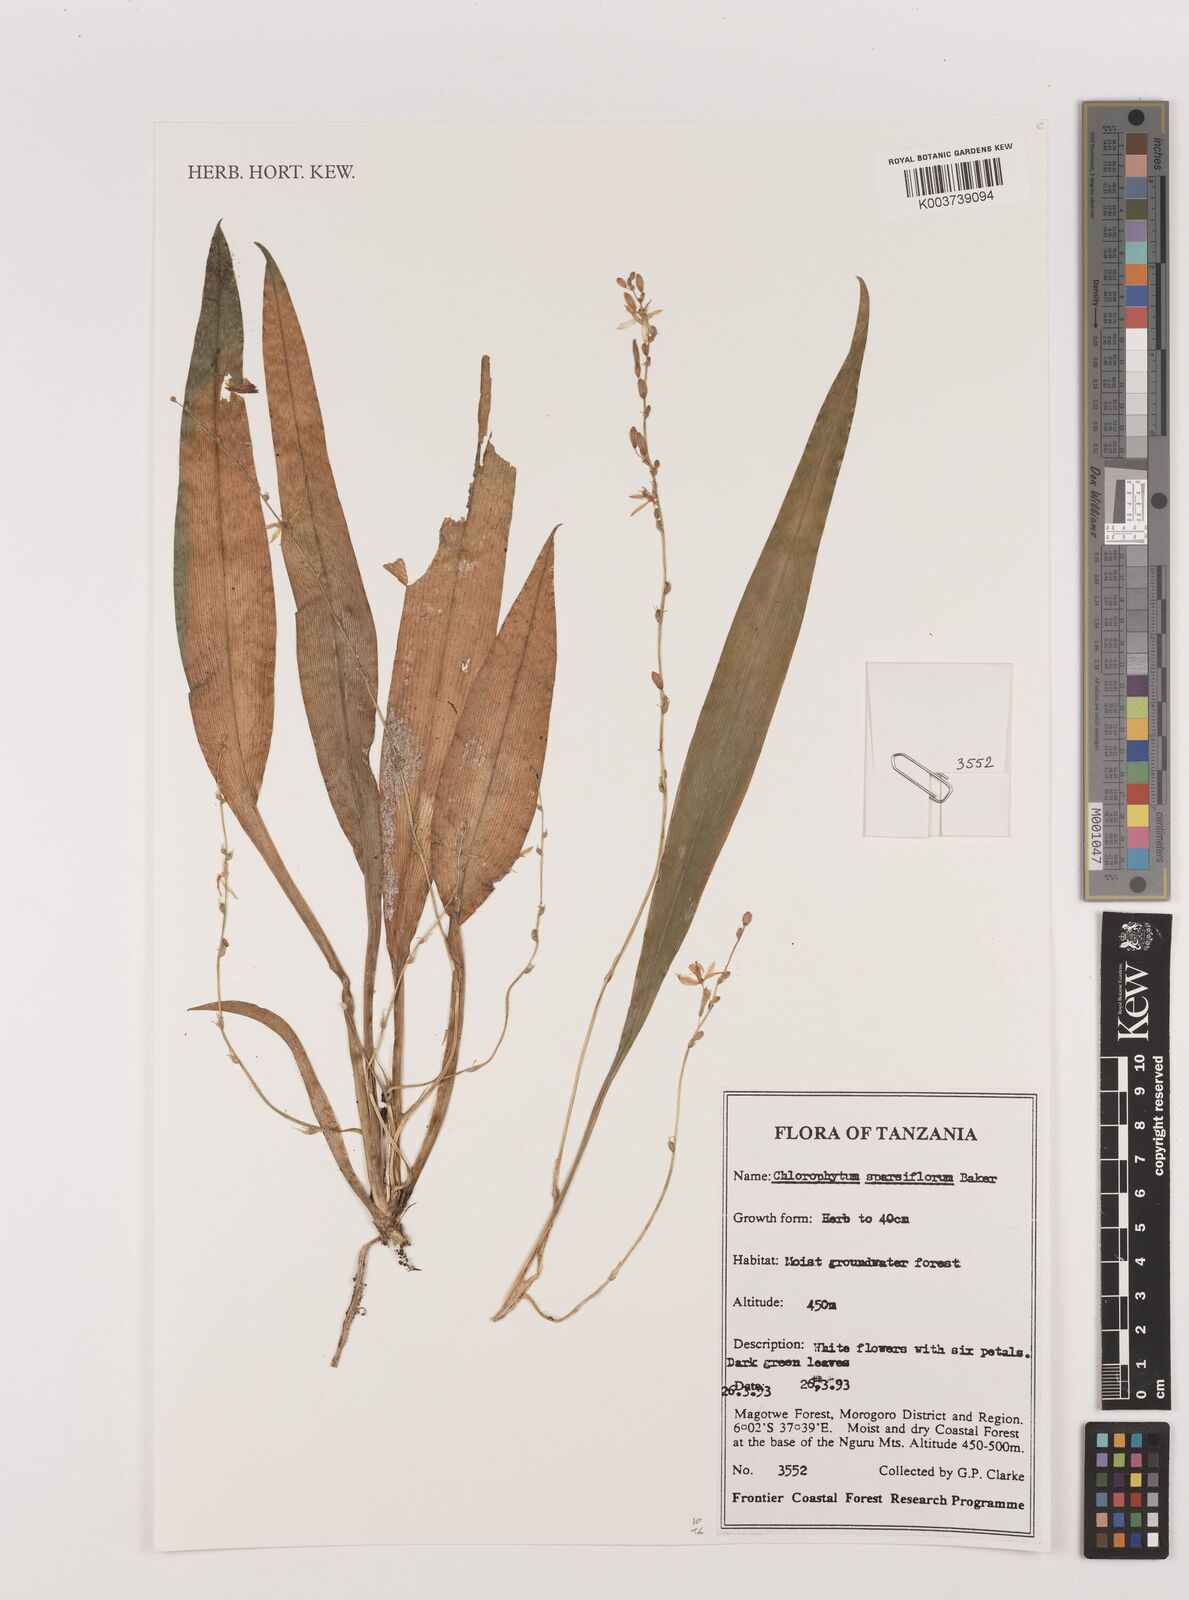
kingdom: Plantae
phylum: Tracheophyta
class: Liliopsida
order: Asparagales
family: Asparagaceae
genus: Chlorophytum
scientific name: Chlorophytum sparsiflorum
